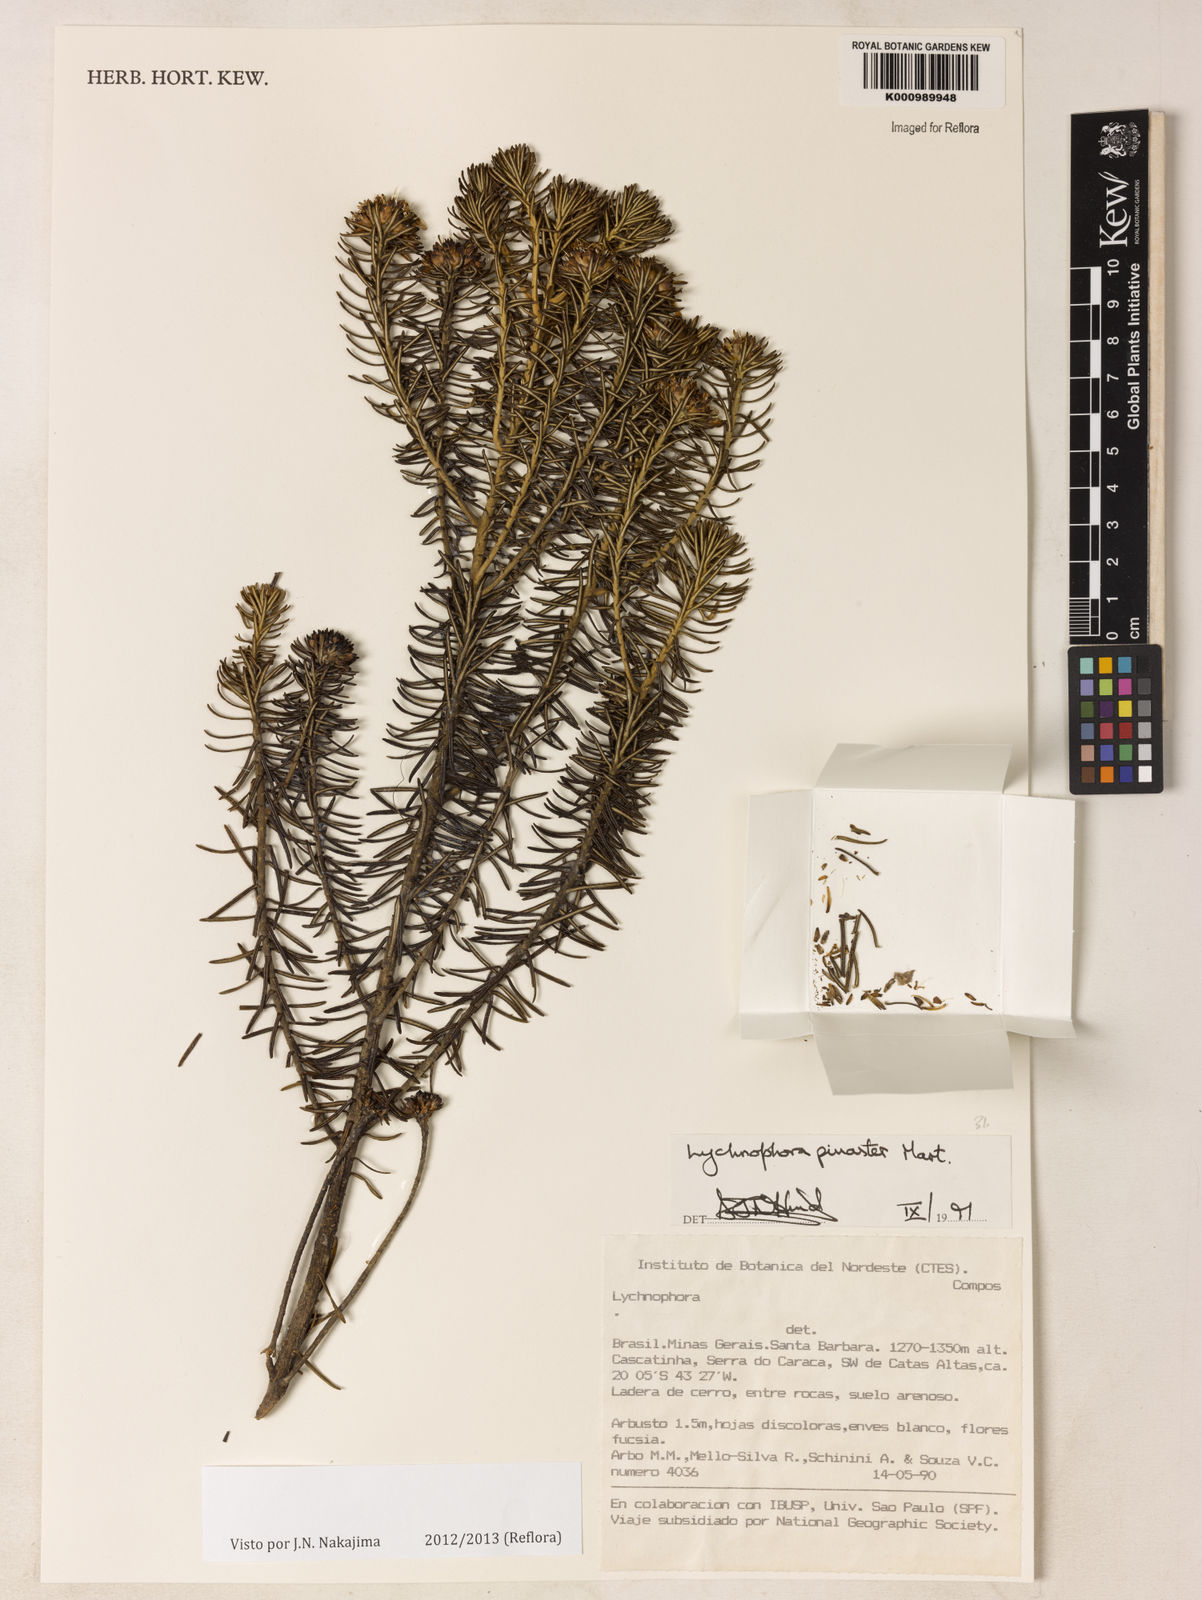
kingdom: Plantae
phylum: Tracheophyta
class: Magnoliopsida
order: Asterales
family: Asteraceae
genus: Lychnophora
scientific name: Lychnophora pinaster
